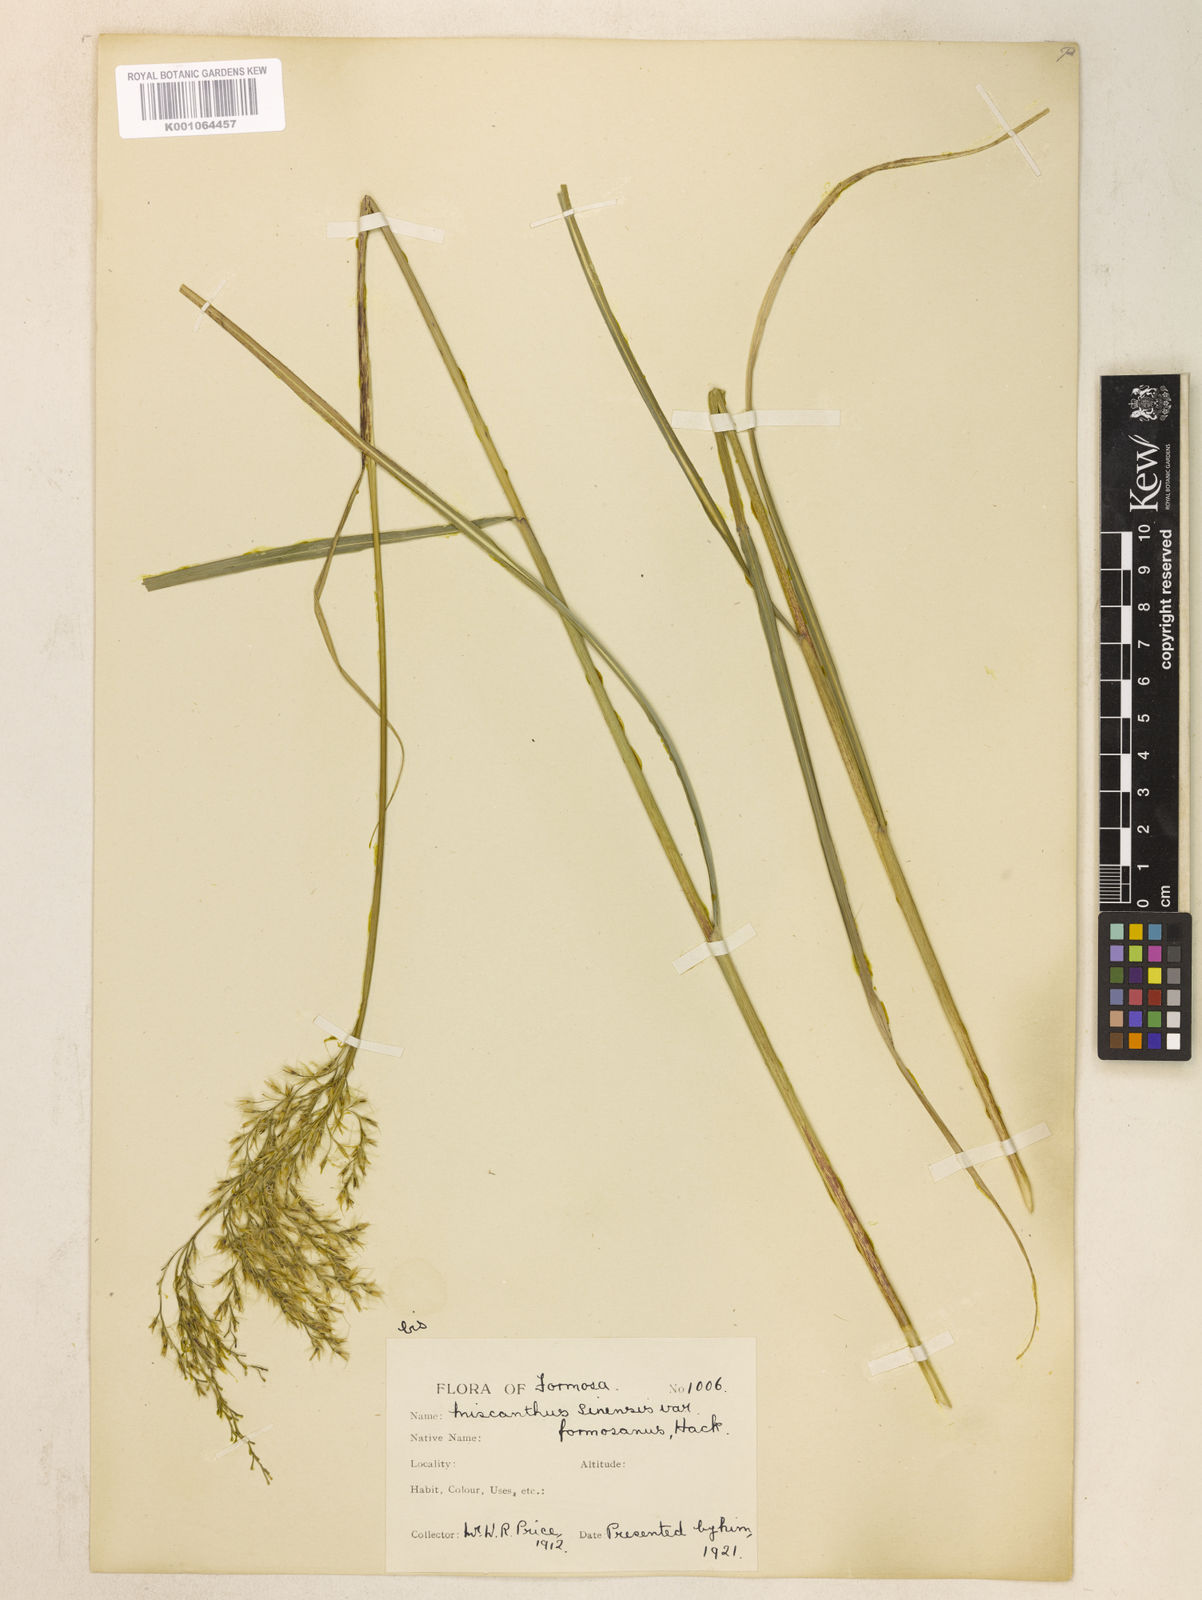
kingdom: Plantae
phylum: Tracheophyta
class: Liliopsida
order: Poales
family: Poaceae
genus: Miscanthus
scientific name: Miscanthus sinensis
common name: Chinese silvergrass
